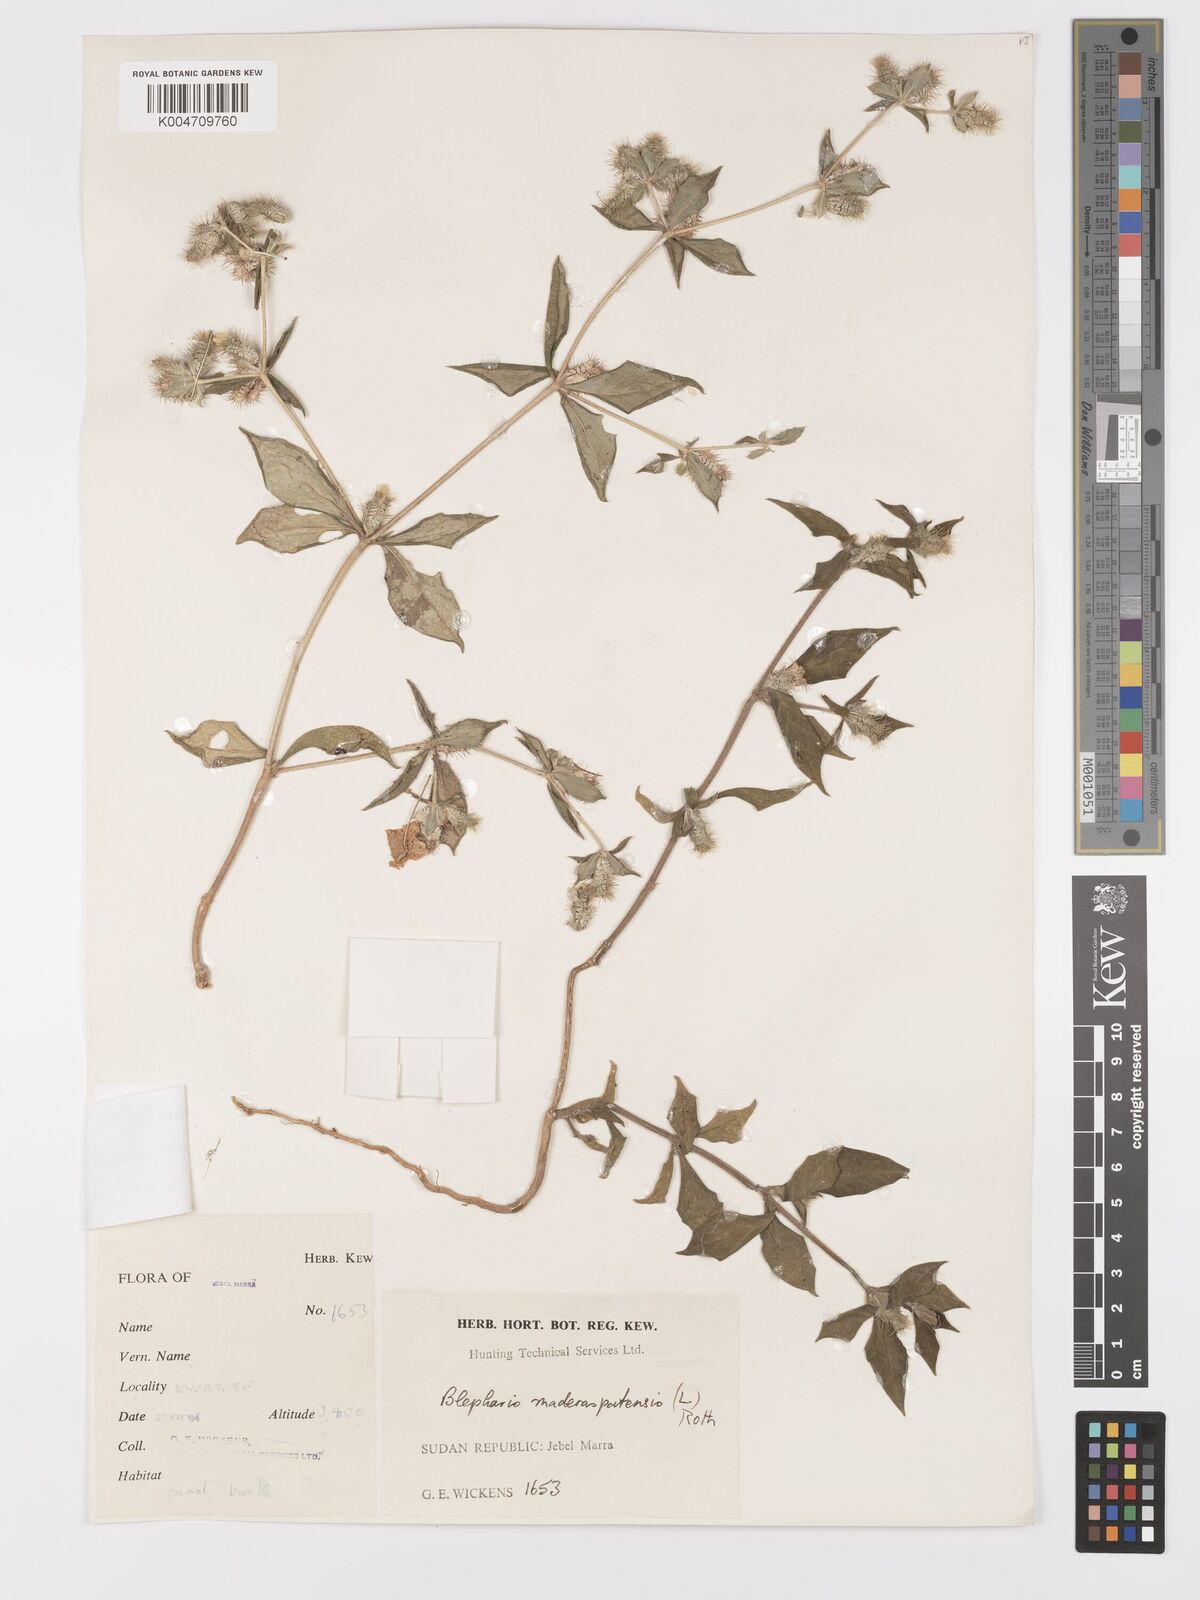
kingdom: Plantae
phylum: Tracheophyta
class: Magnoliopsida
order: Lamiales
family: Acanthaceae
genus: Blepharis
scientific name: Blepharis maderaspatensis
